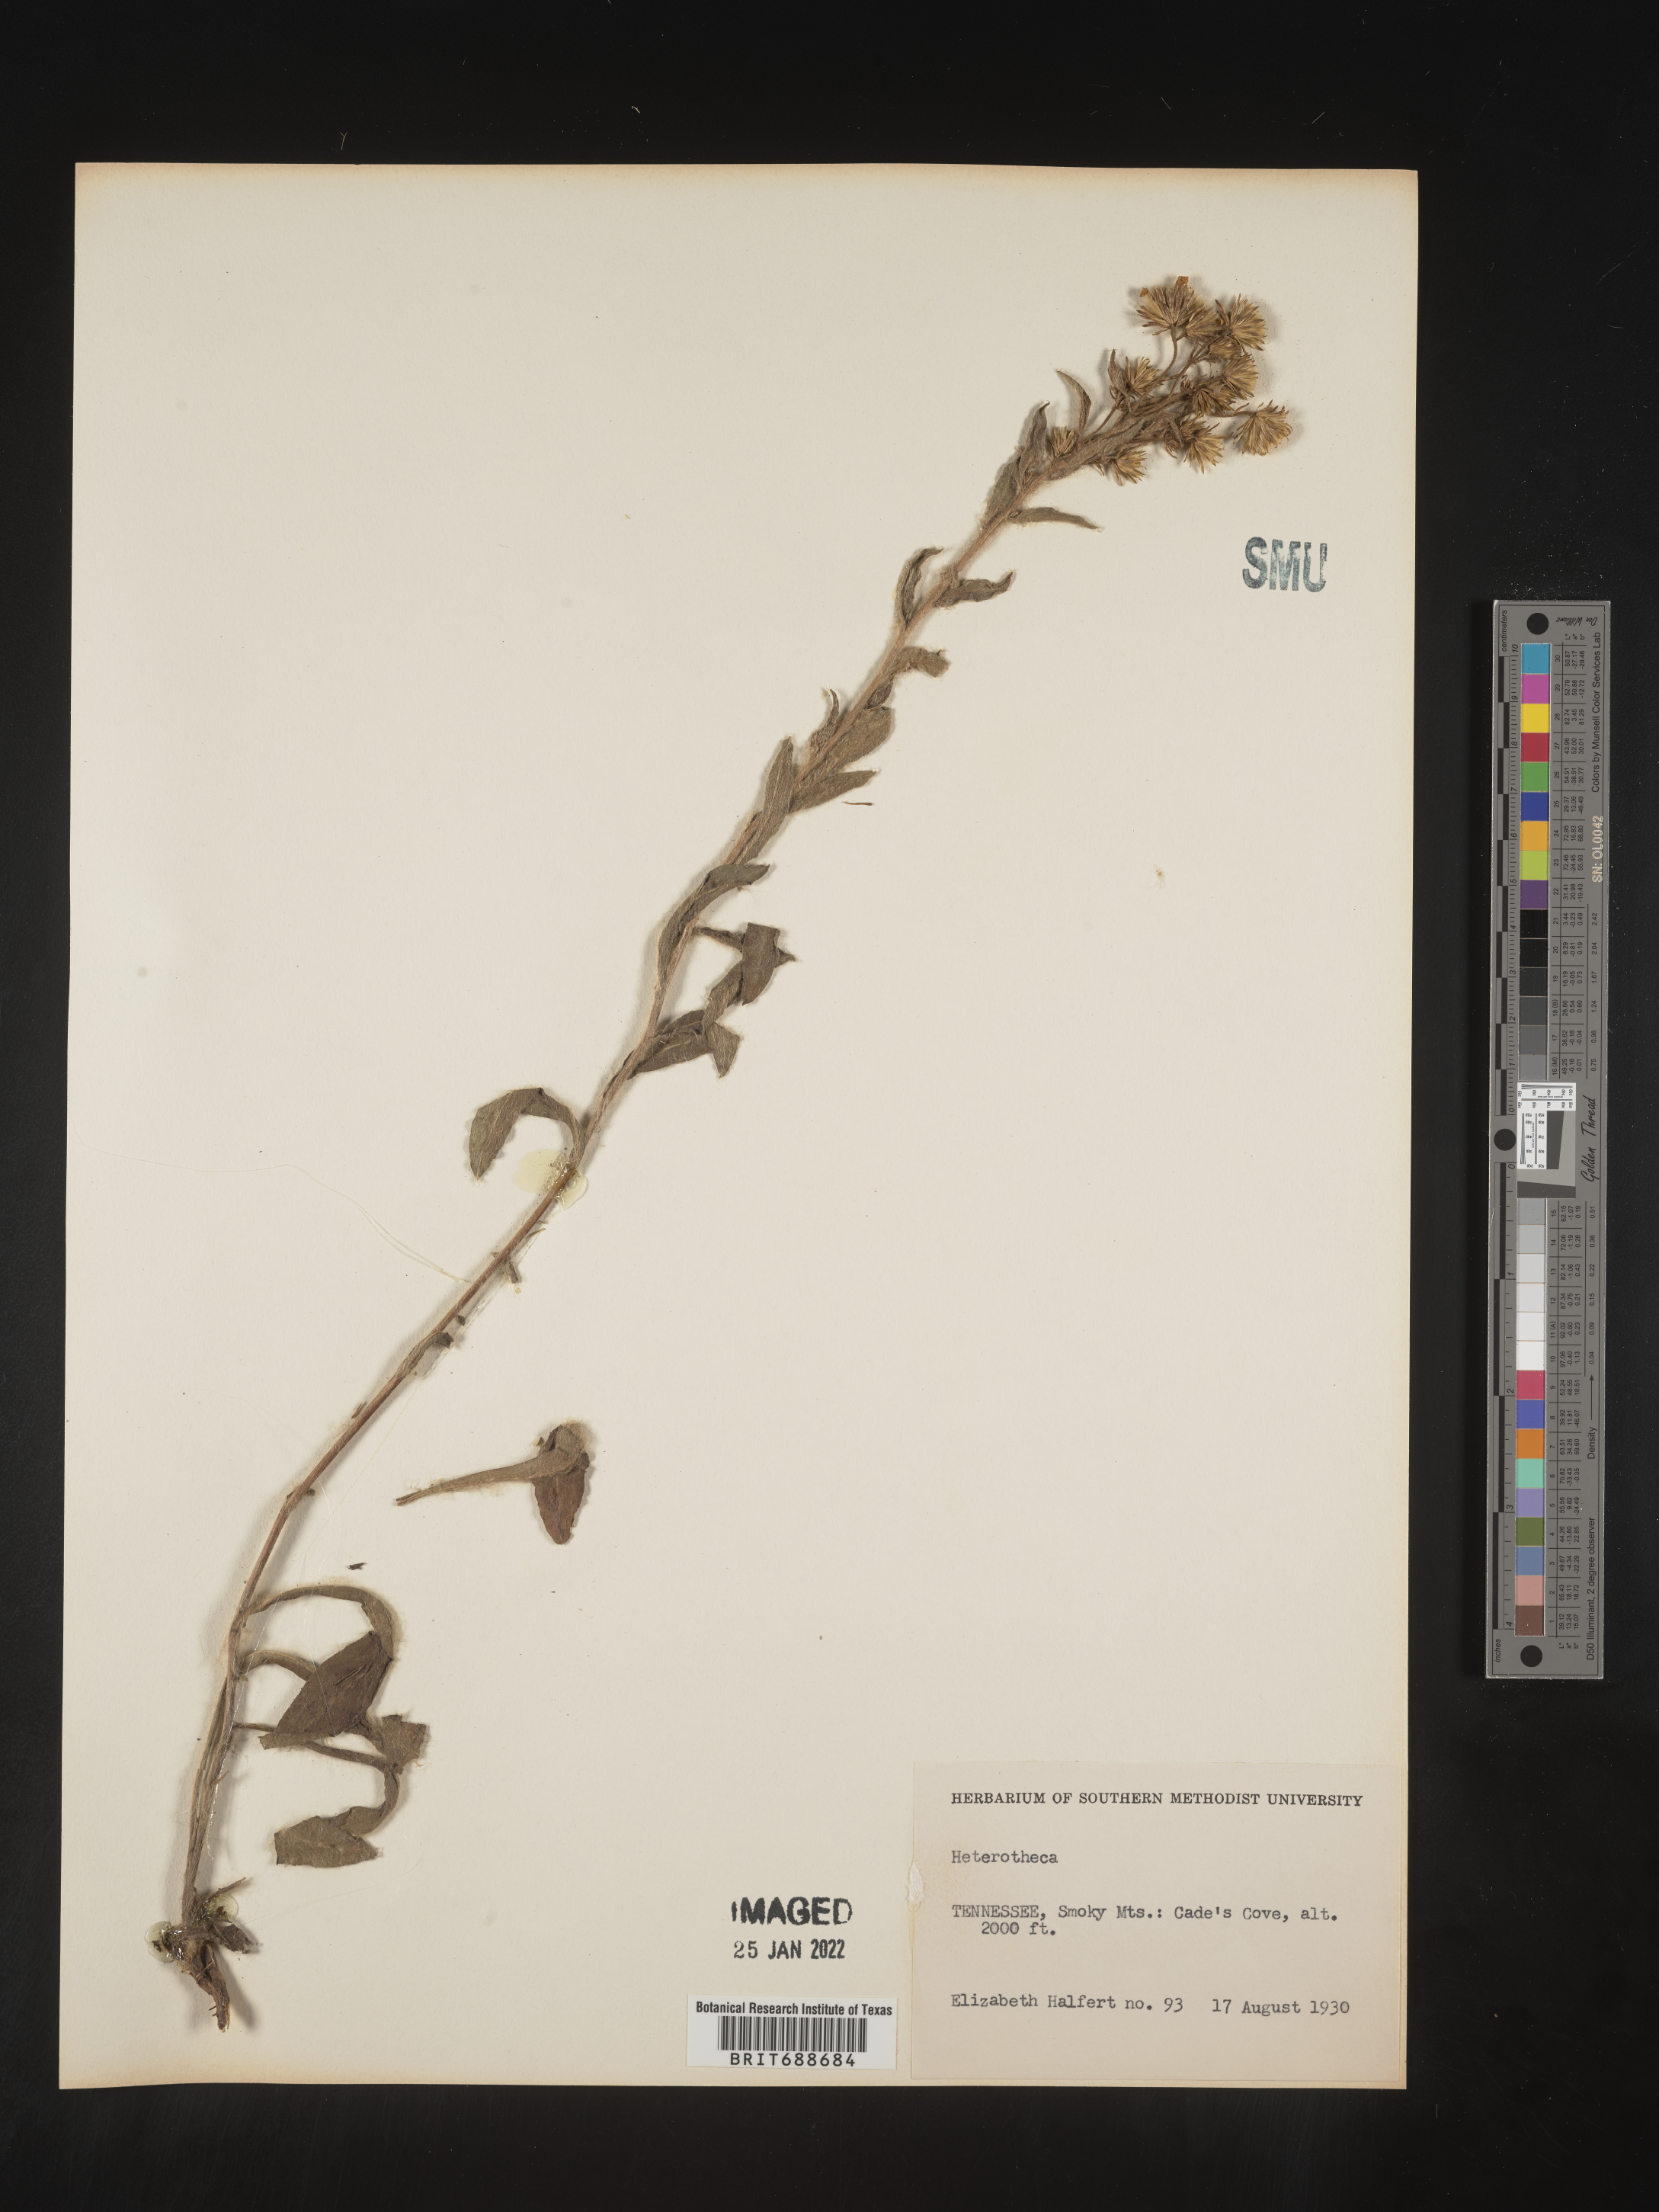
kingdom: Plantae
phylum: Tracheophyta
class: Magnoliopsida
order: Asterales
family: Asteraceae
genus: Chrysopsis
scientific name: Chrysopsis mariana
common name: Maryland golden-aster
